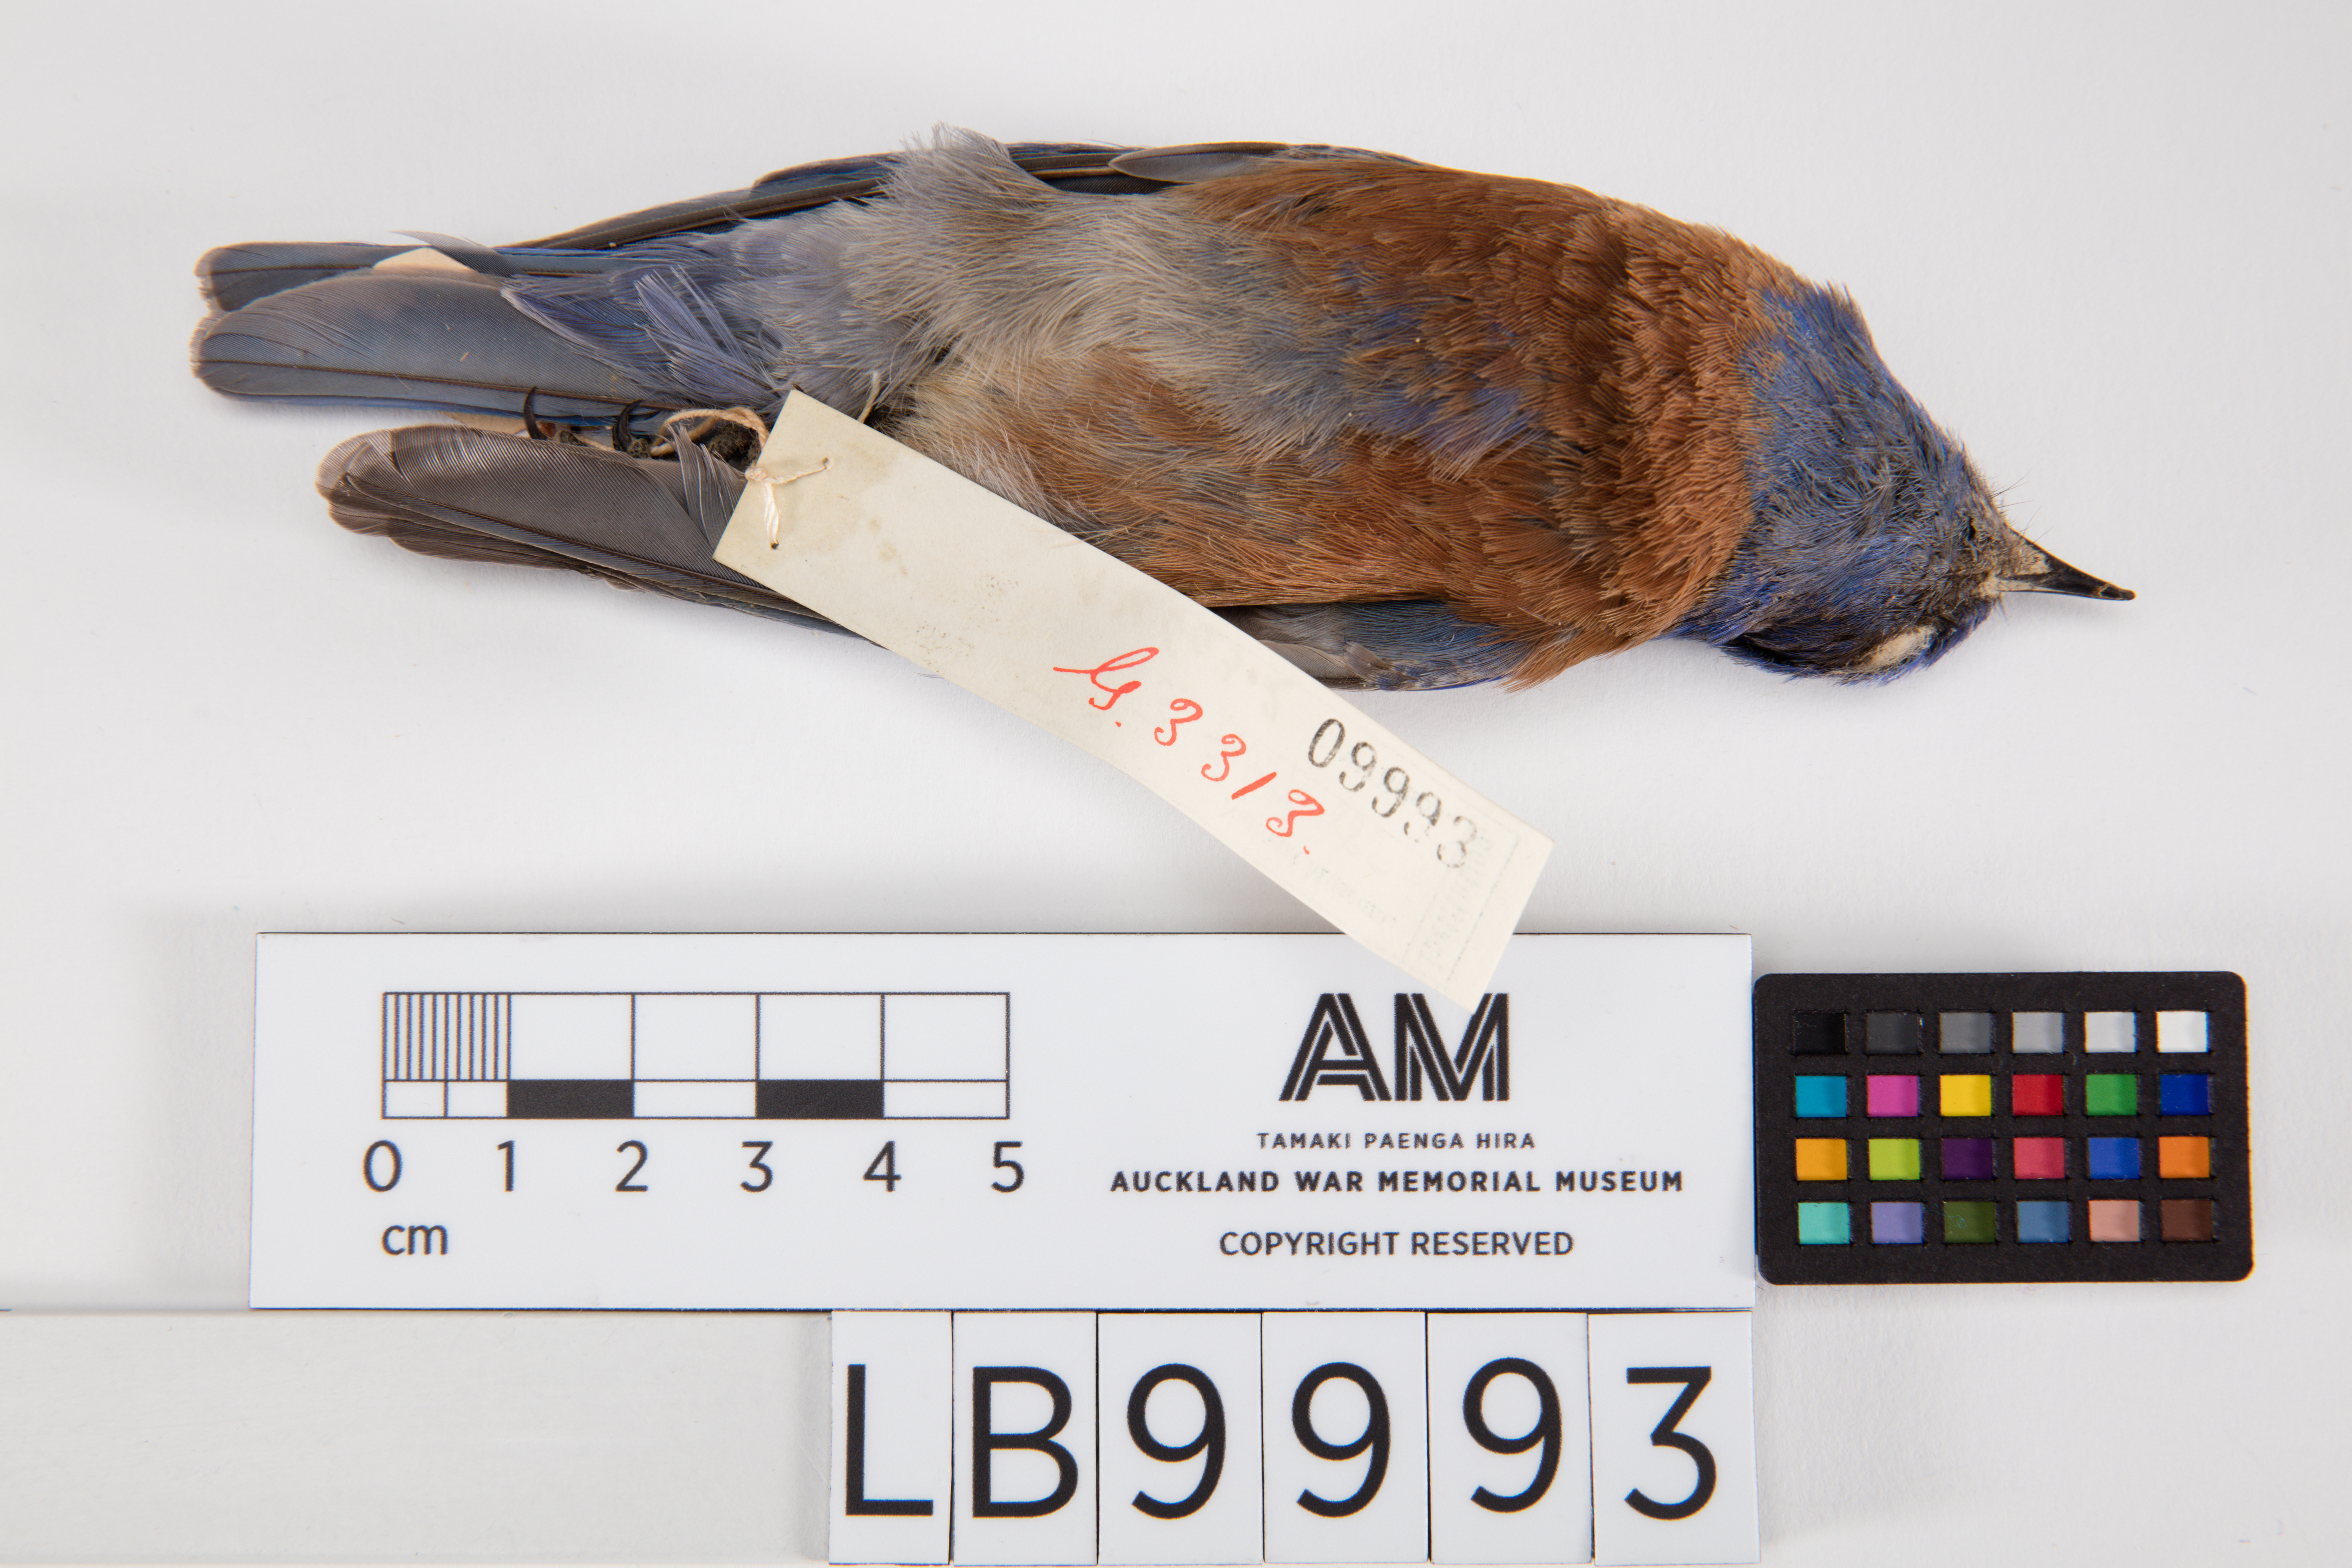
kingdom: Animalia
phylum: Chordata
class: Aves
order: Passeriformes
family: Turdidae
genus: Sialia
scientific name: Sialia mexicana
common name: Western bluebird
